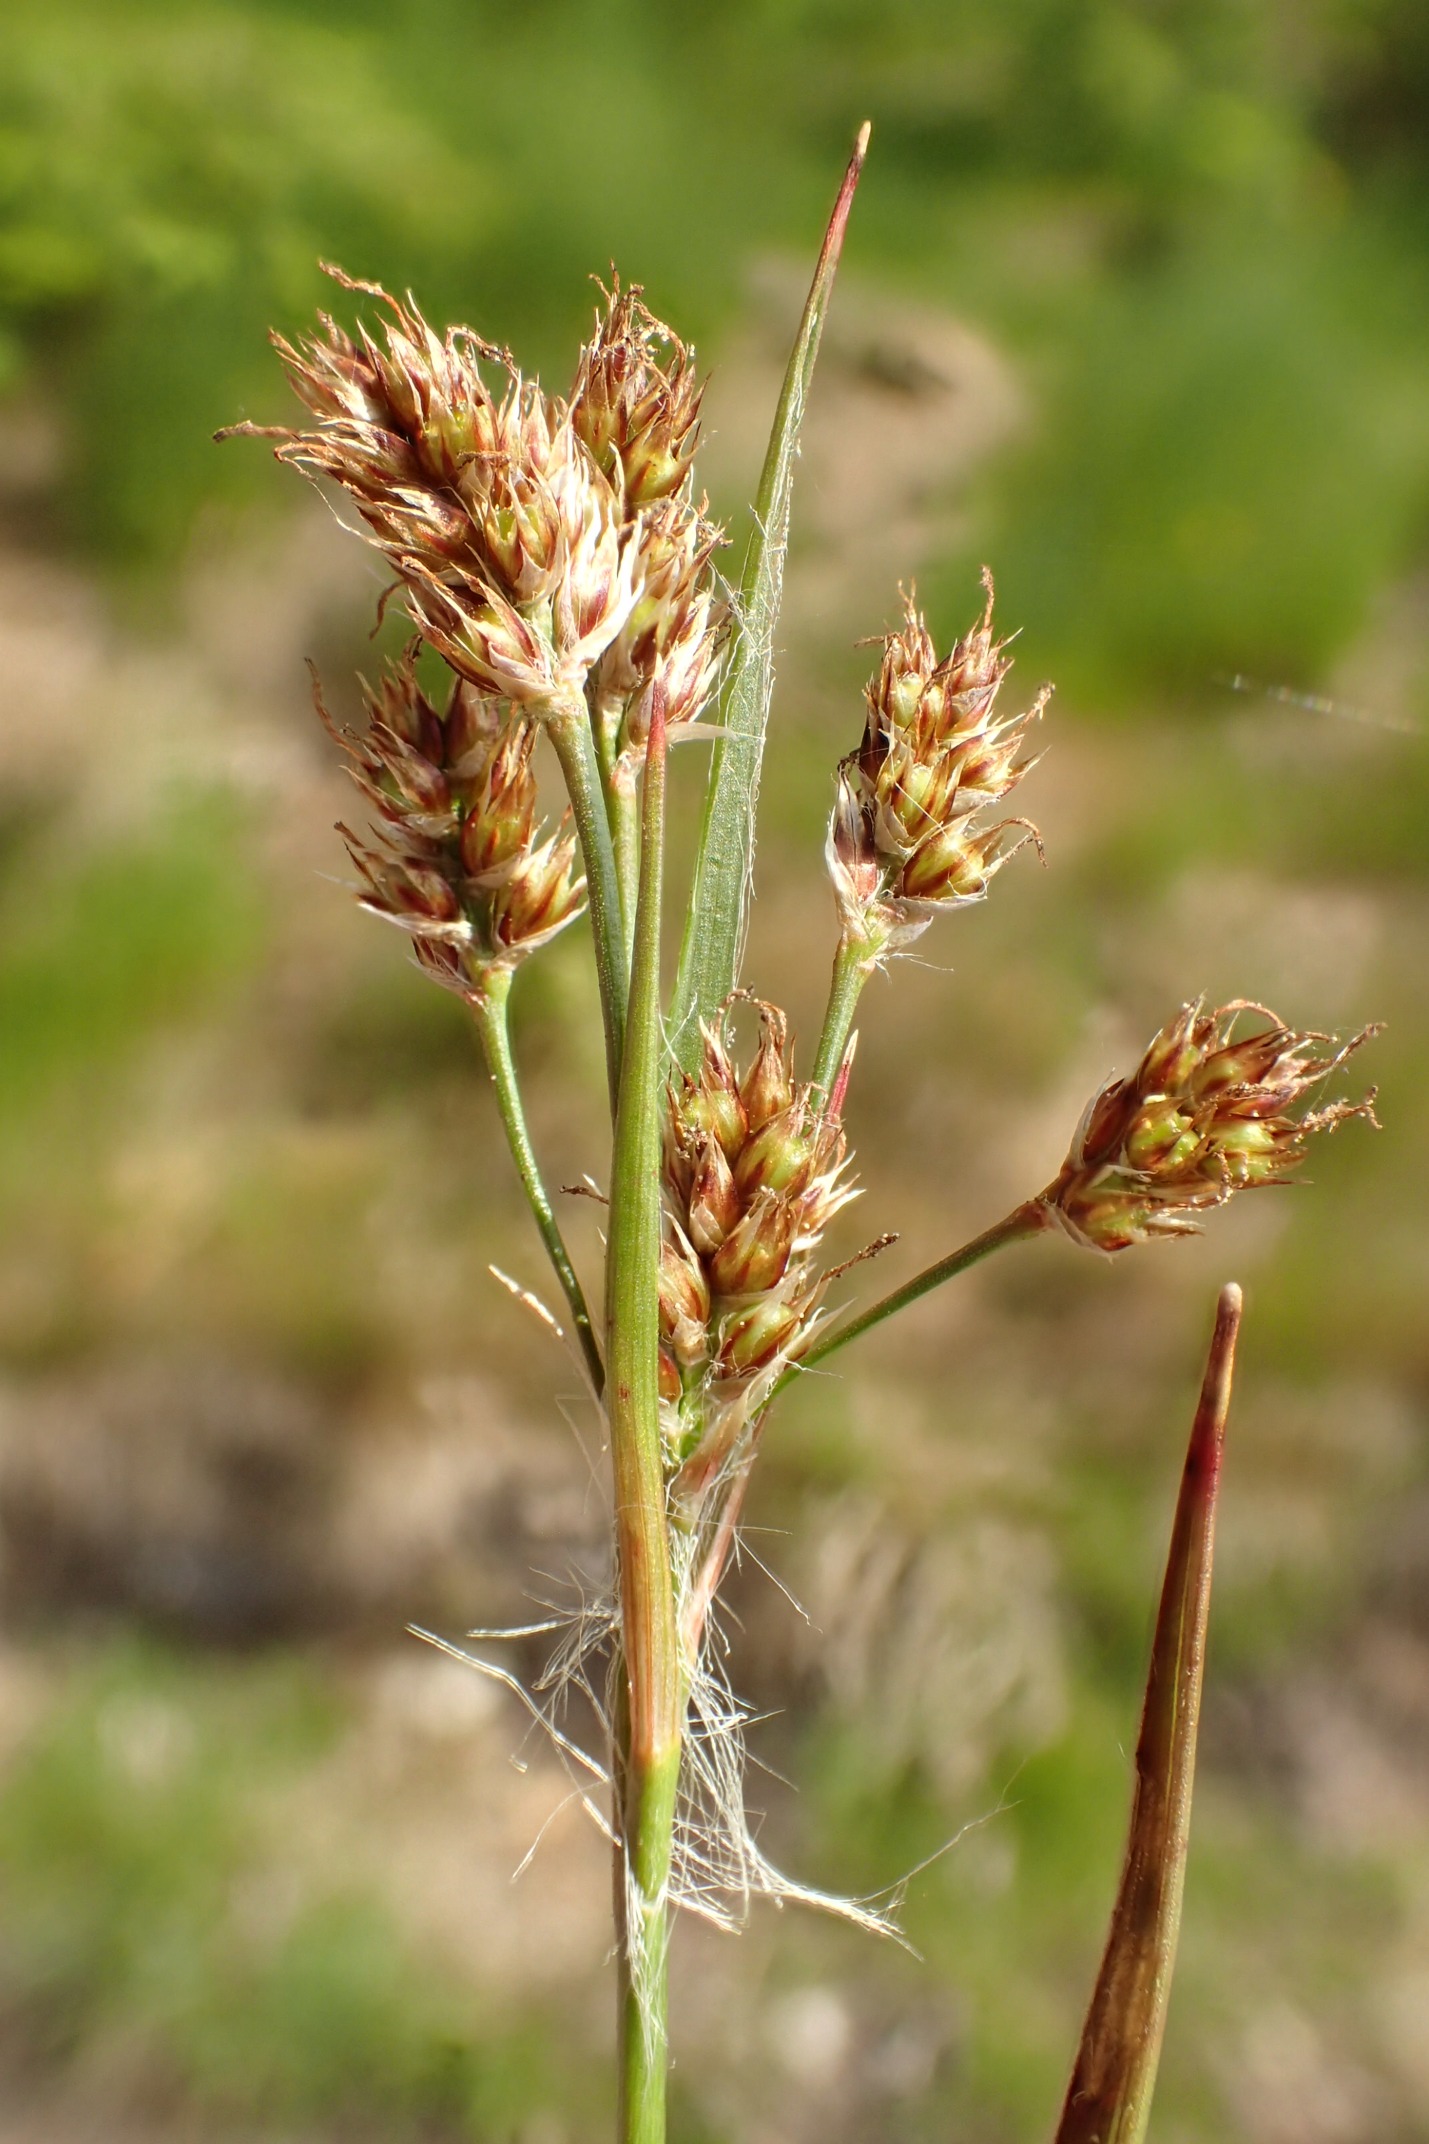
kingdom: Plantae
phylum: Tracheophyta
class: Liliopsida
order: Poales
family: Juncaceae
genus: Luzula
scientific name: Luzula multiflora
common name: Mangeblomstret frytle
